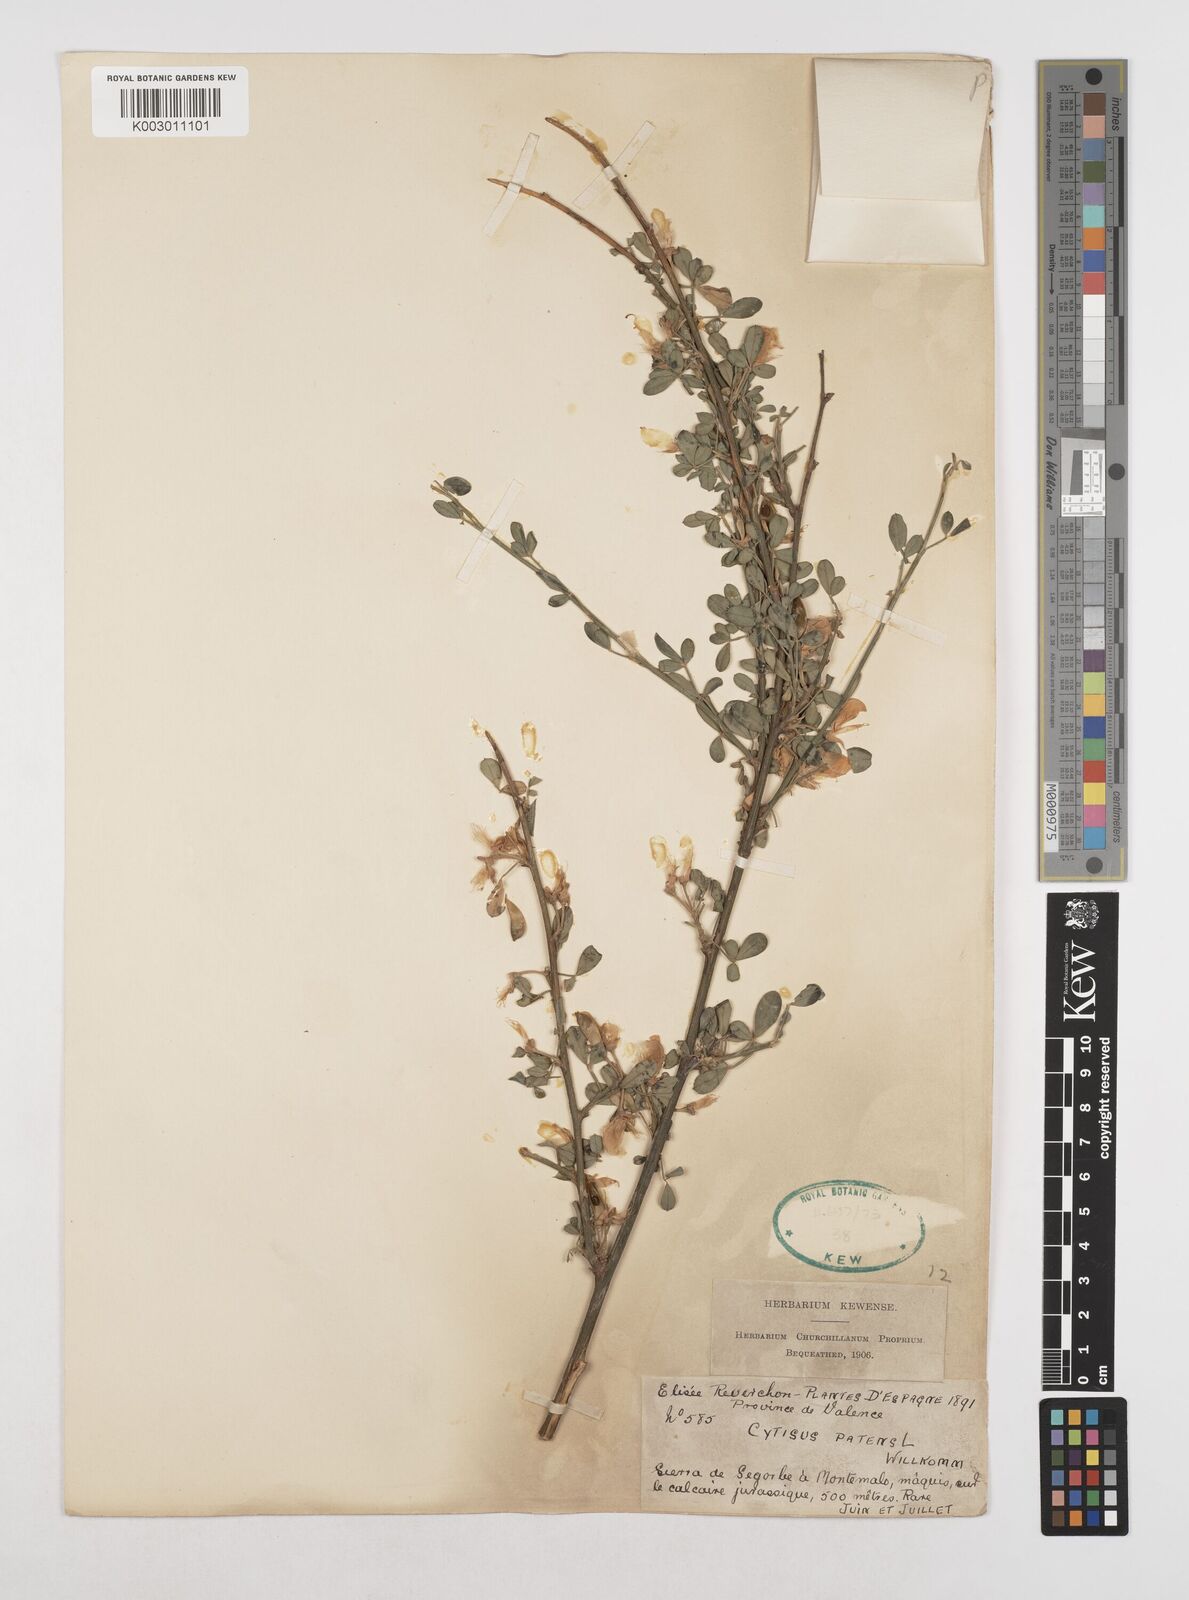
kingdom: Plantae
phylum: Tracheophyta
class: Magnoliopsida
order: Fabales
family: Fabaceae
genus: Cytisus
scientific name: Cytisus striatus
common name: Hairy-fruited broom
